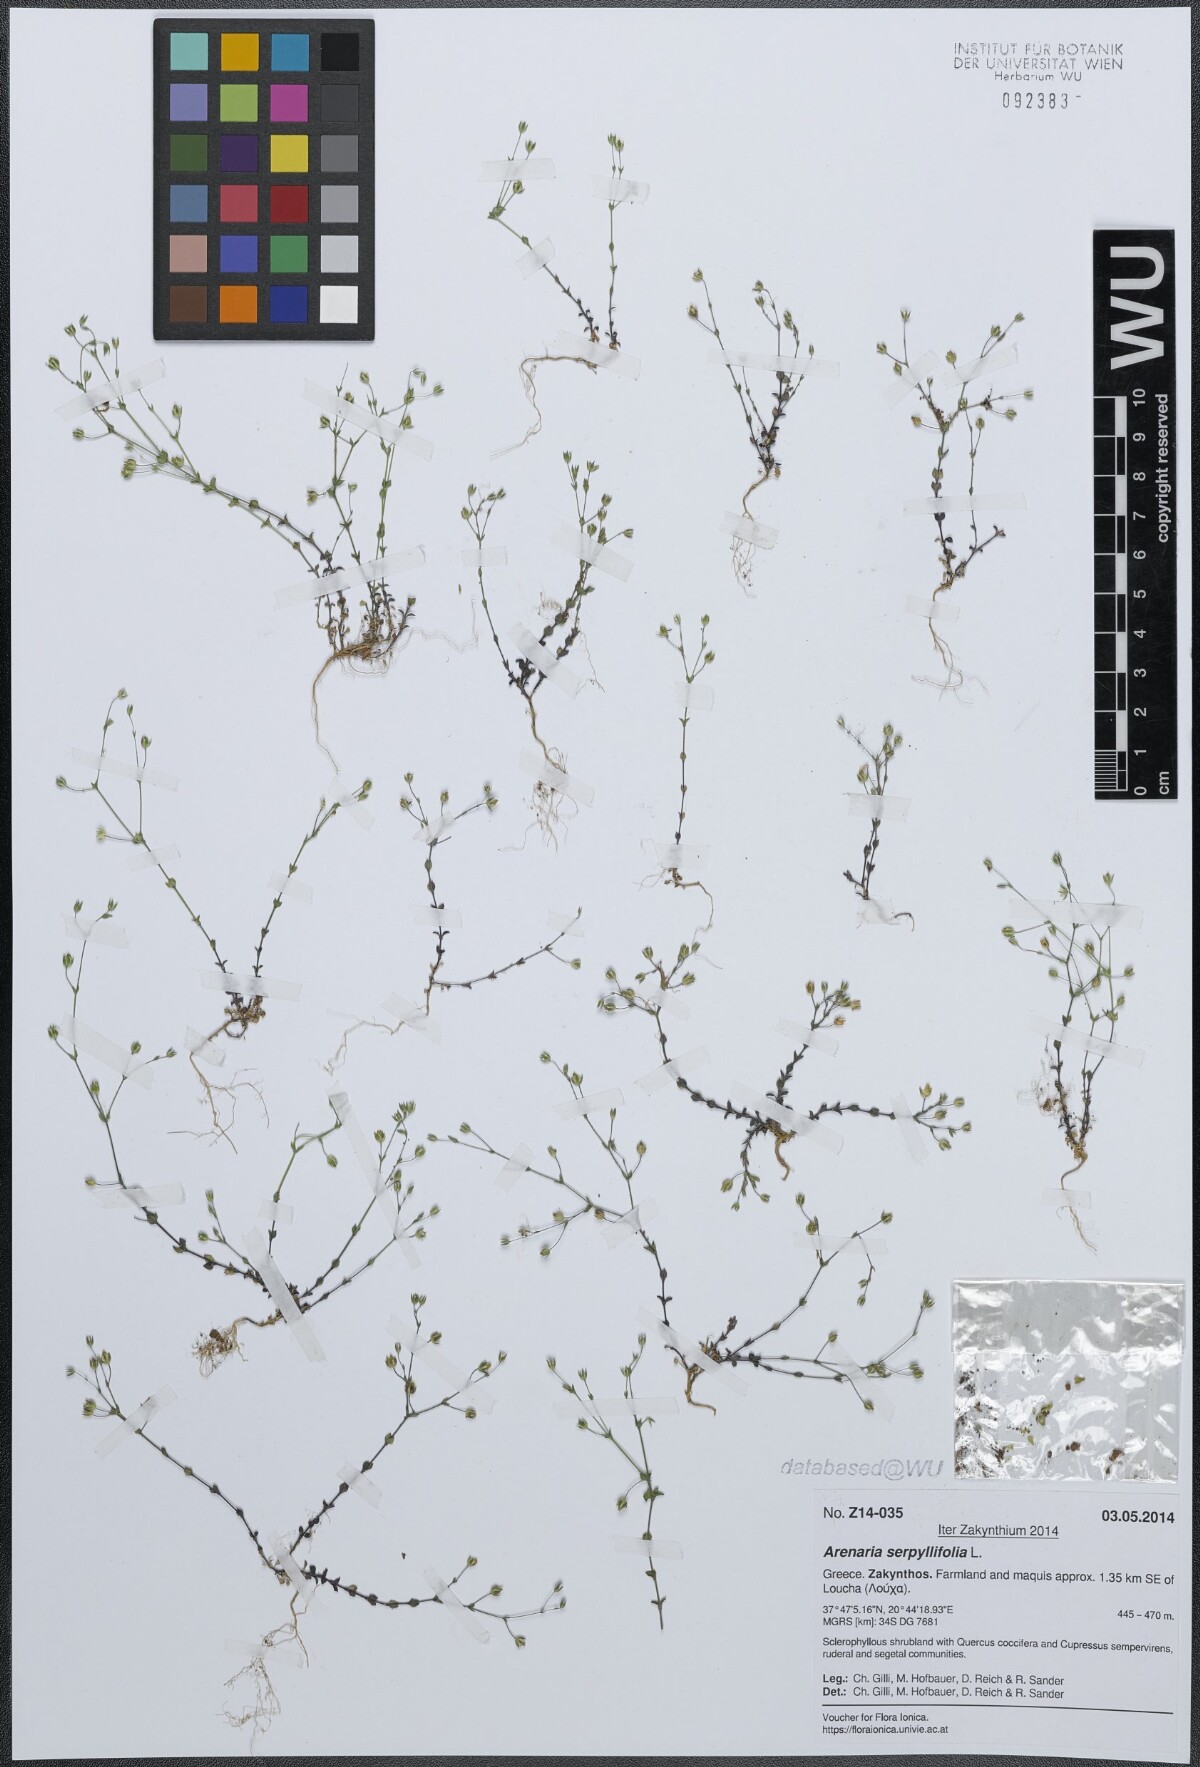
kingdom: Plantae
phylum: Tracheophyta
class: Magnoliopsida
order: Caryophyllales
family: Caryophyllaceae
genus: Arenaria
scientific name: Arenaria serpyllifolia
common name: Thyme-leaved sandwort
